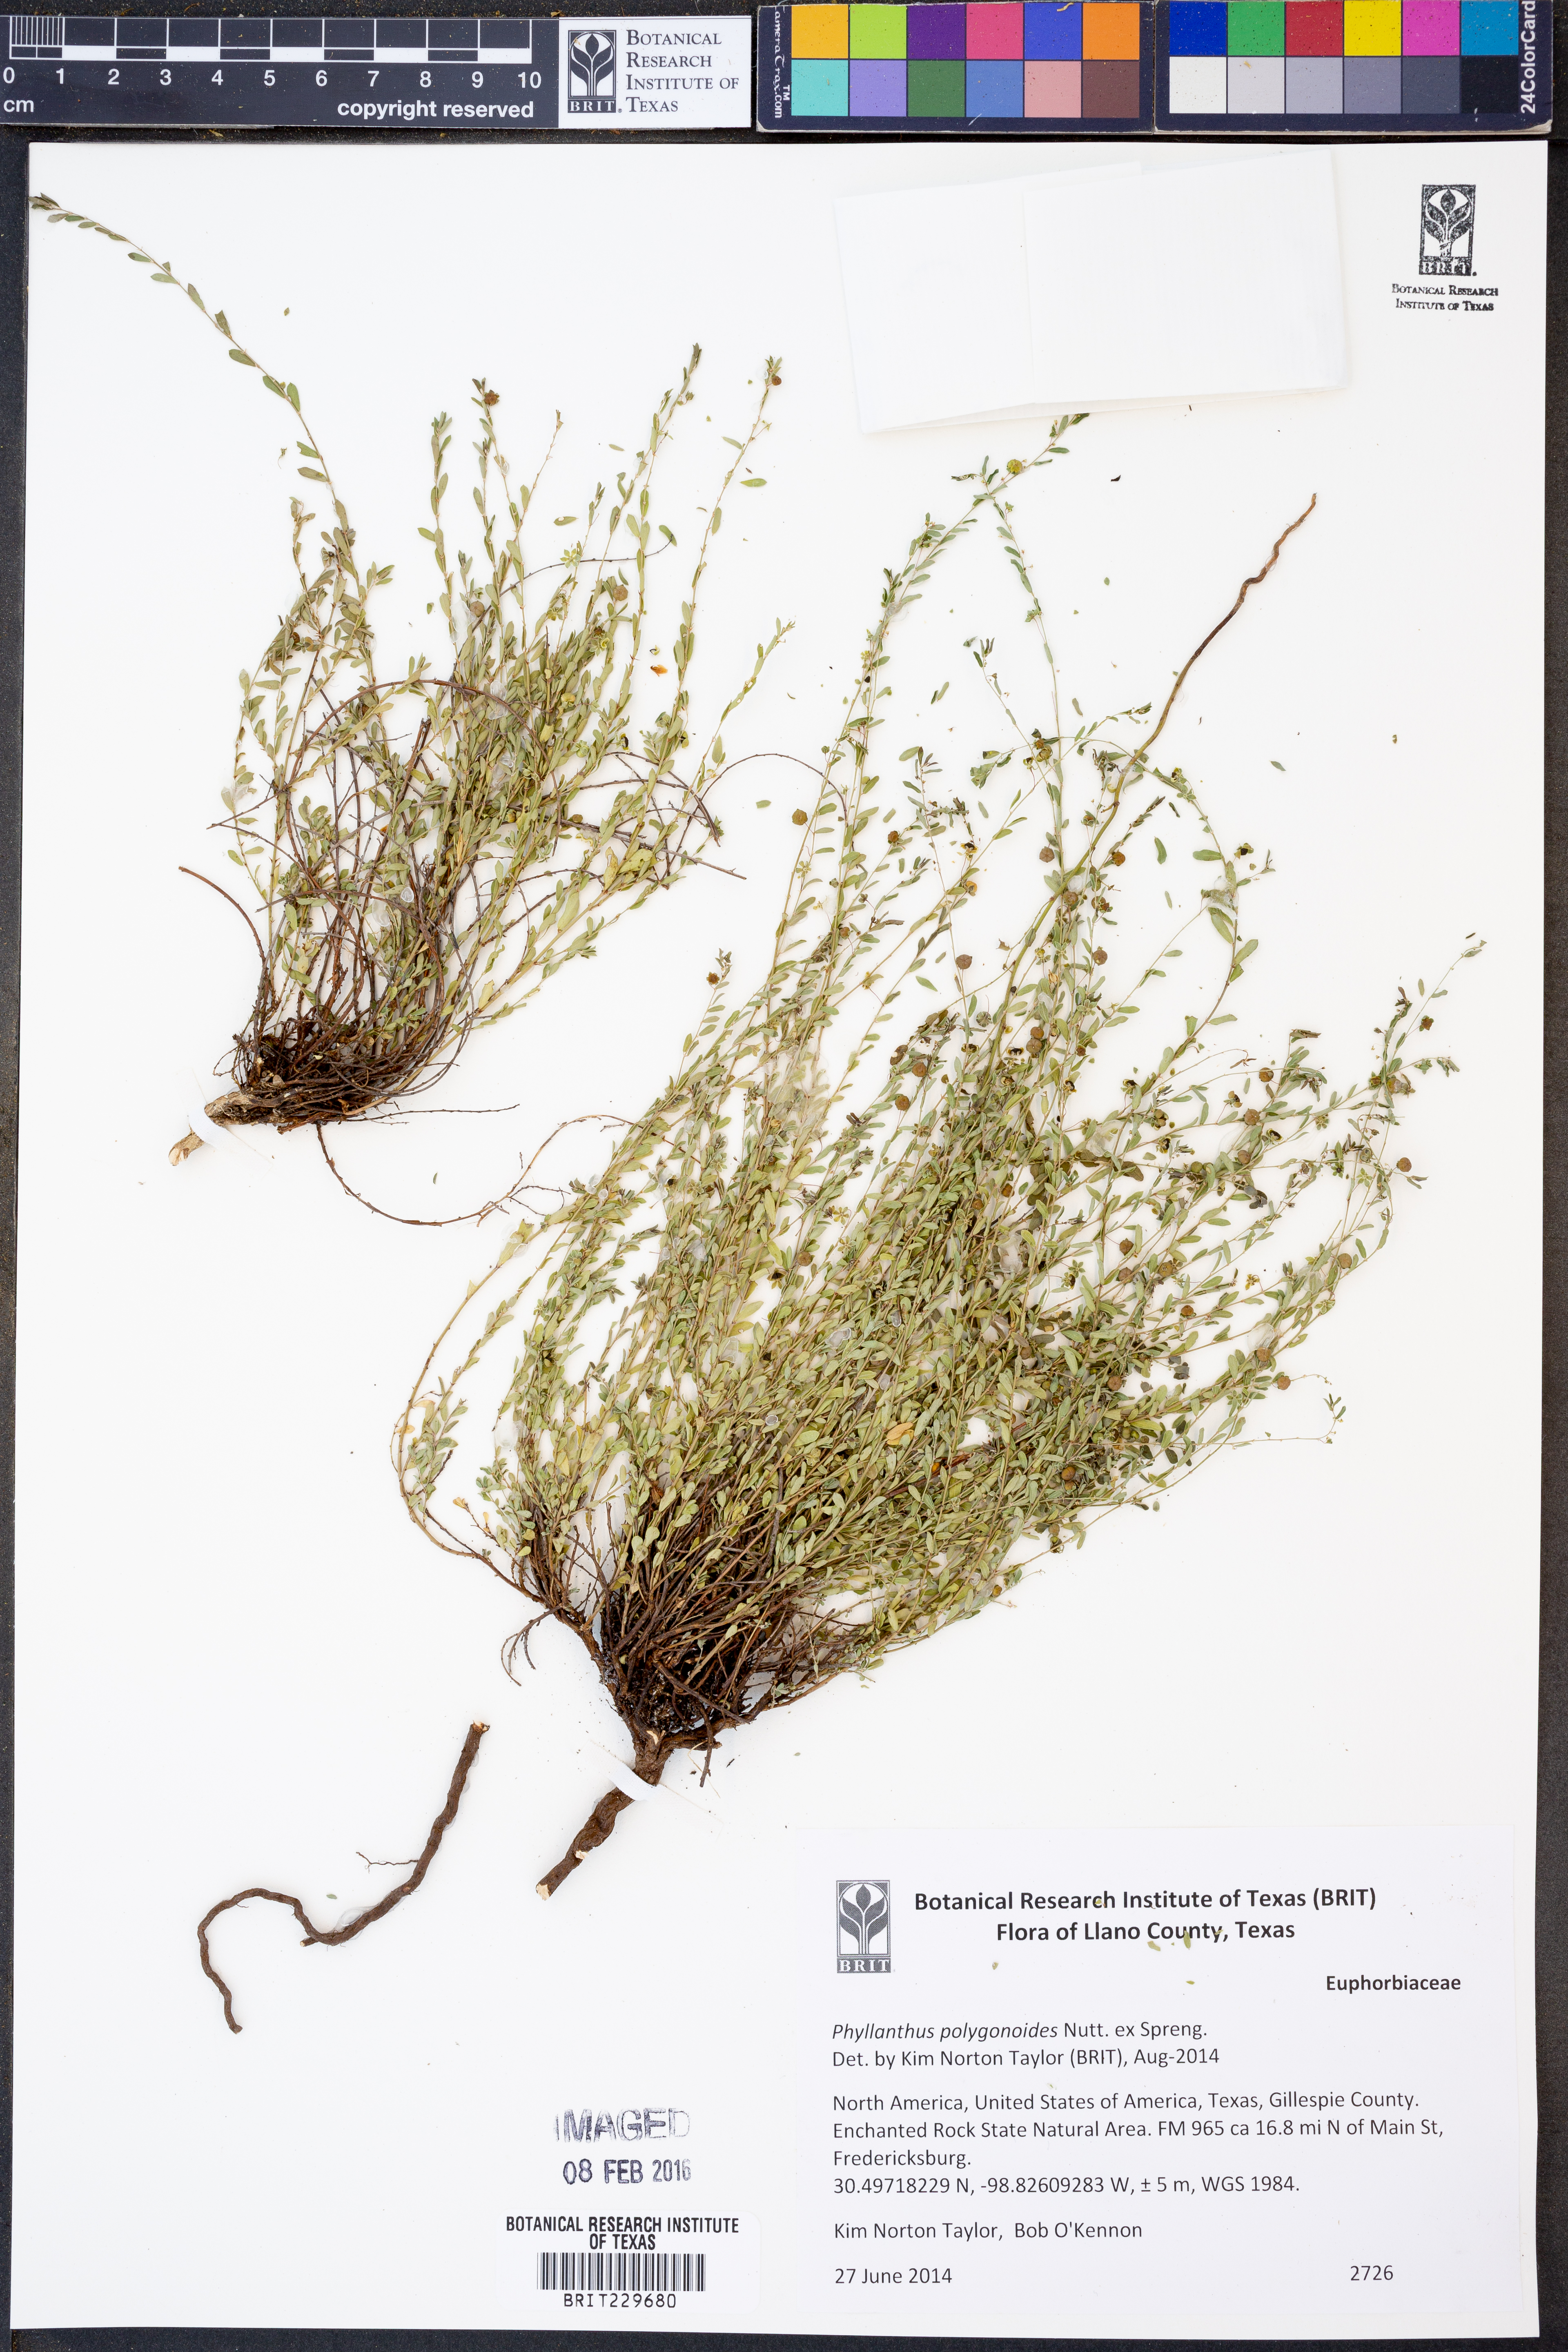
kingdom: Plantae
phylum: Tracheophyta
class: Magnoliopsida
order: Malpighiales
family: Phyllanthaceae
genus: Phyllanthus
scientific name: Phyllanthus polygonoides
